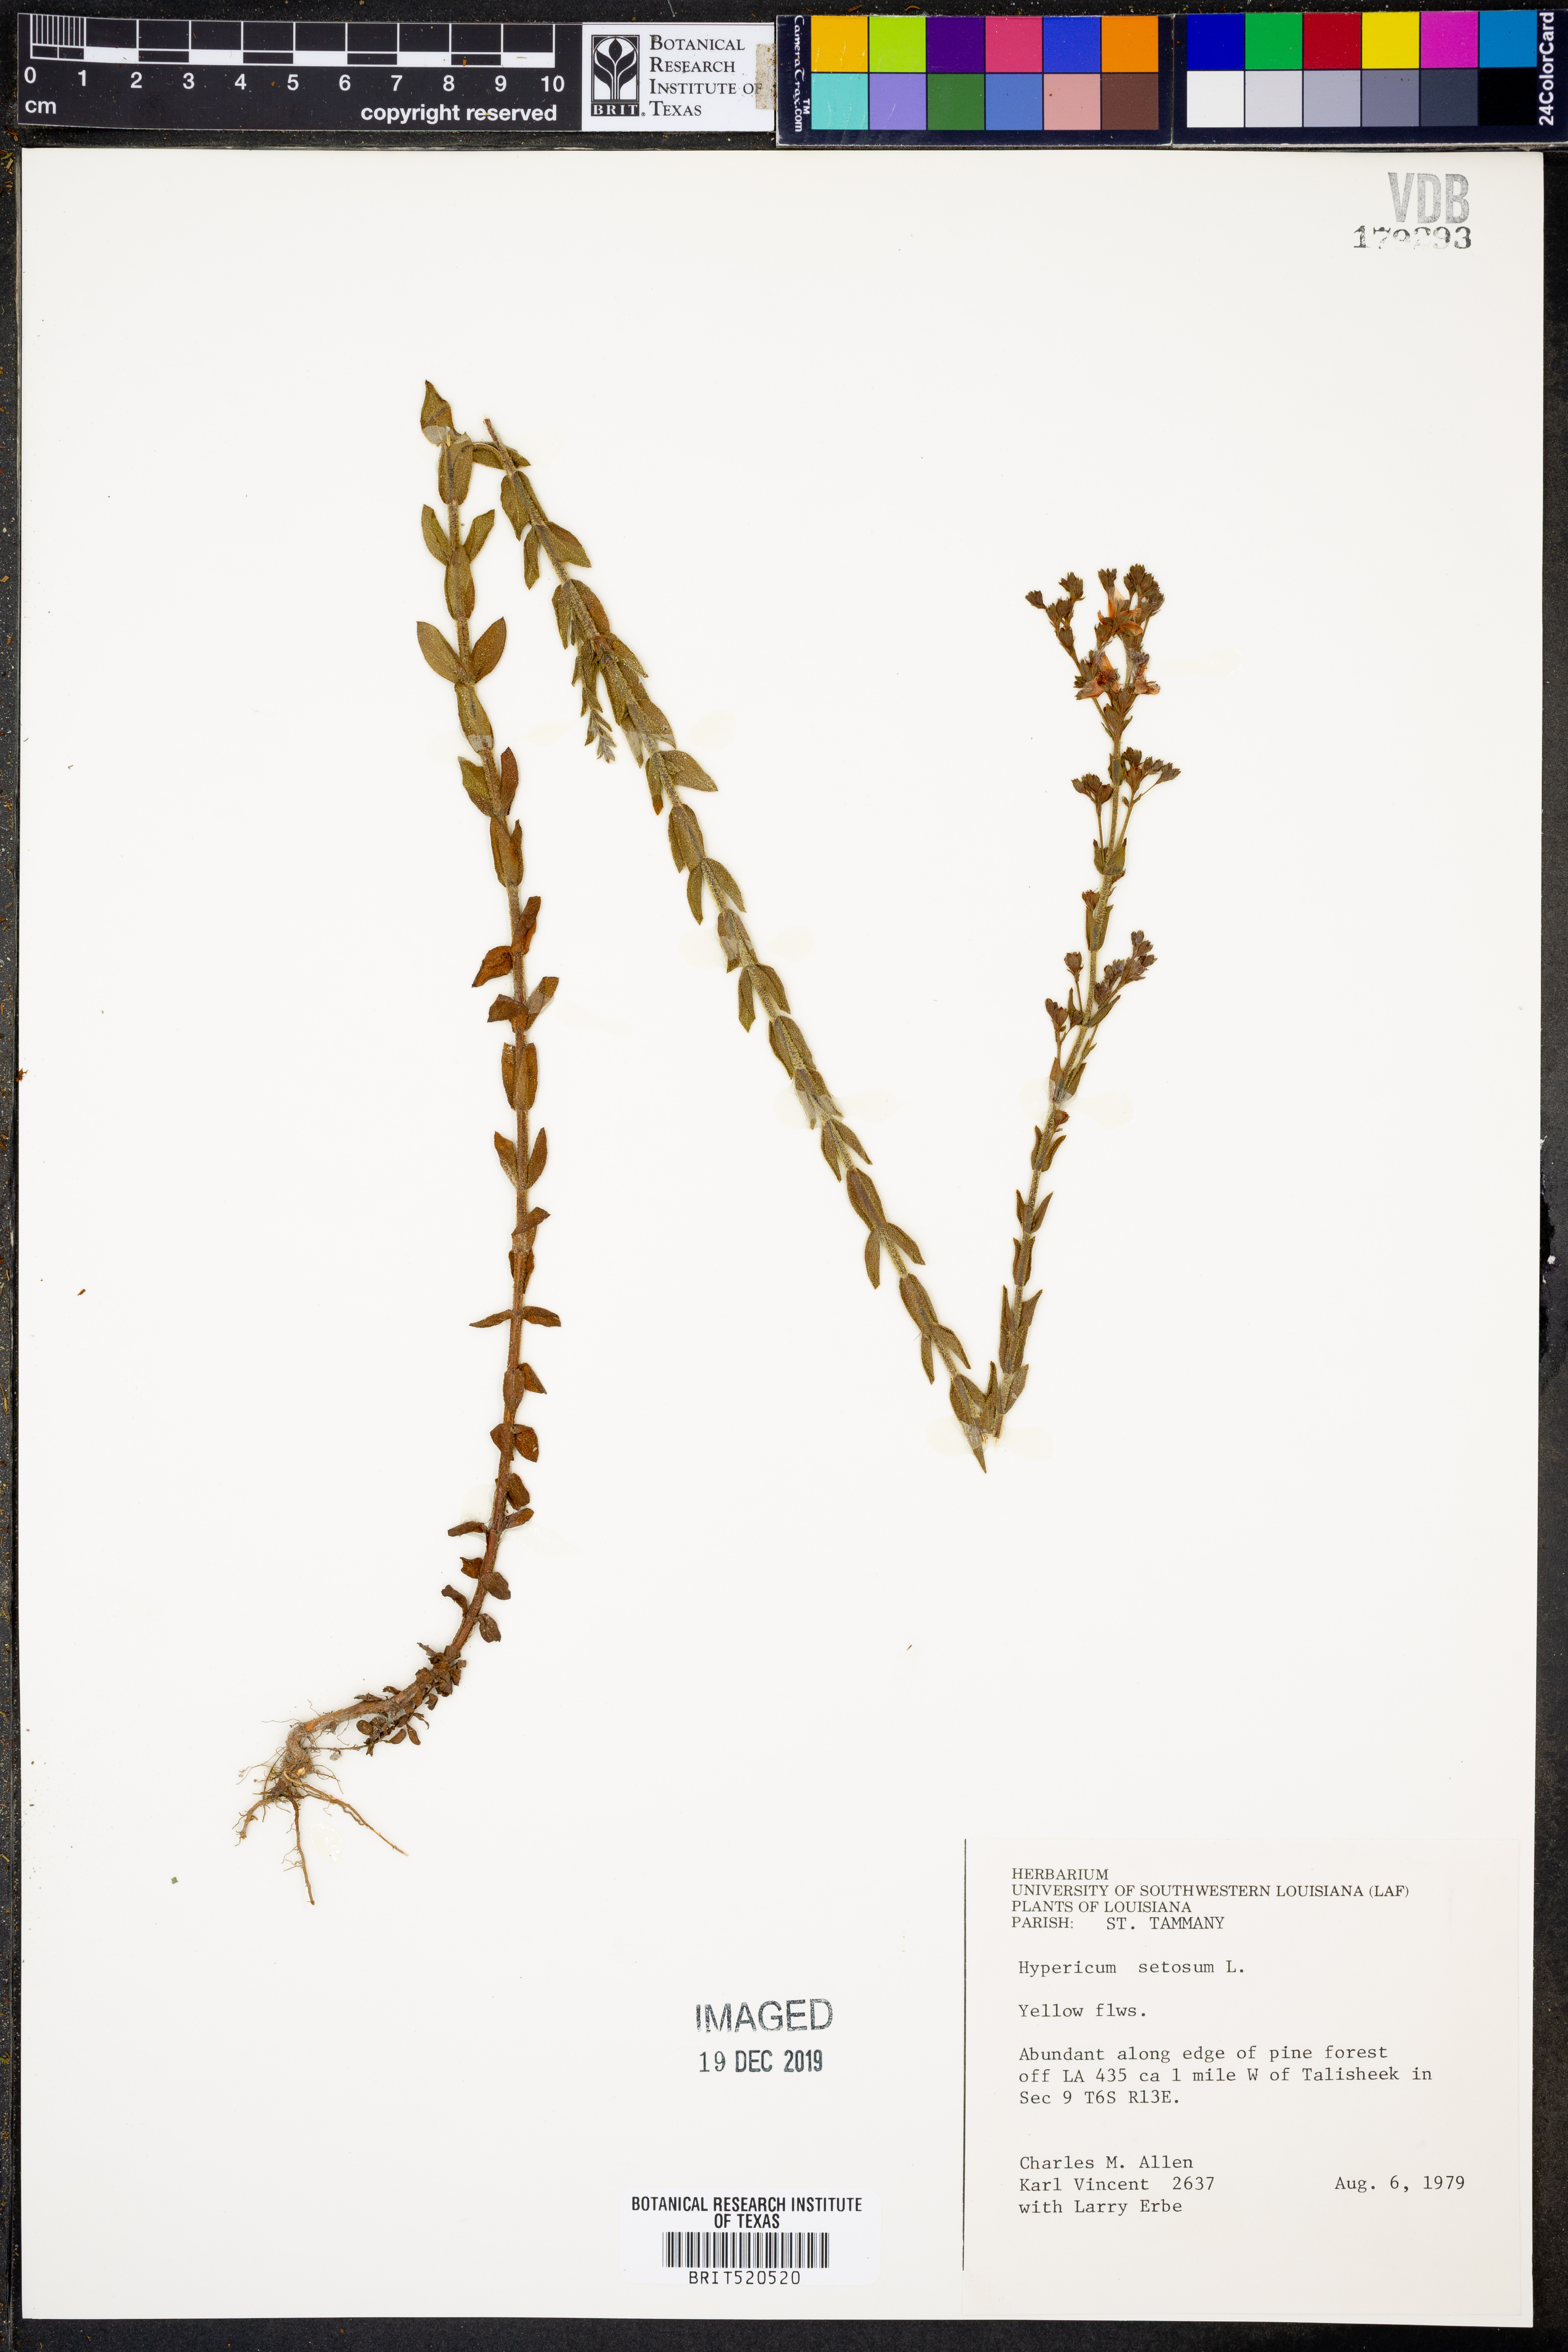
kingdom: Plantae
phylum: Tracheophyta
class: Magnoliopsida
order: Malpighiales
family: Hypericaceae
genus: Hypericum
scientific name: Hypericum setosum
